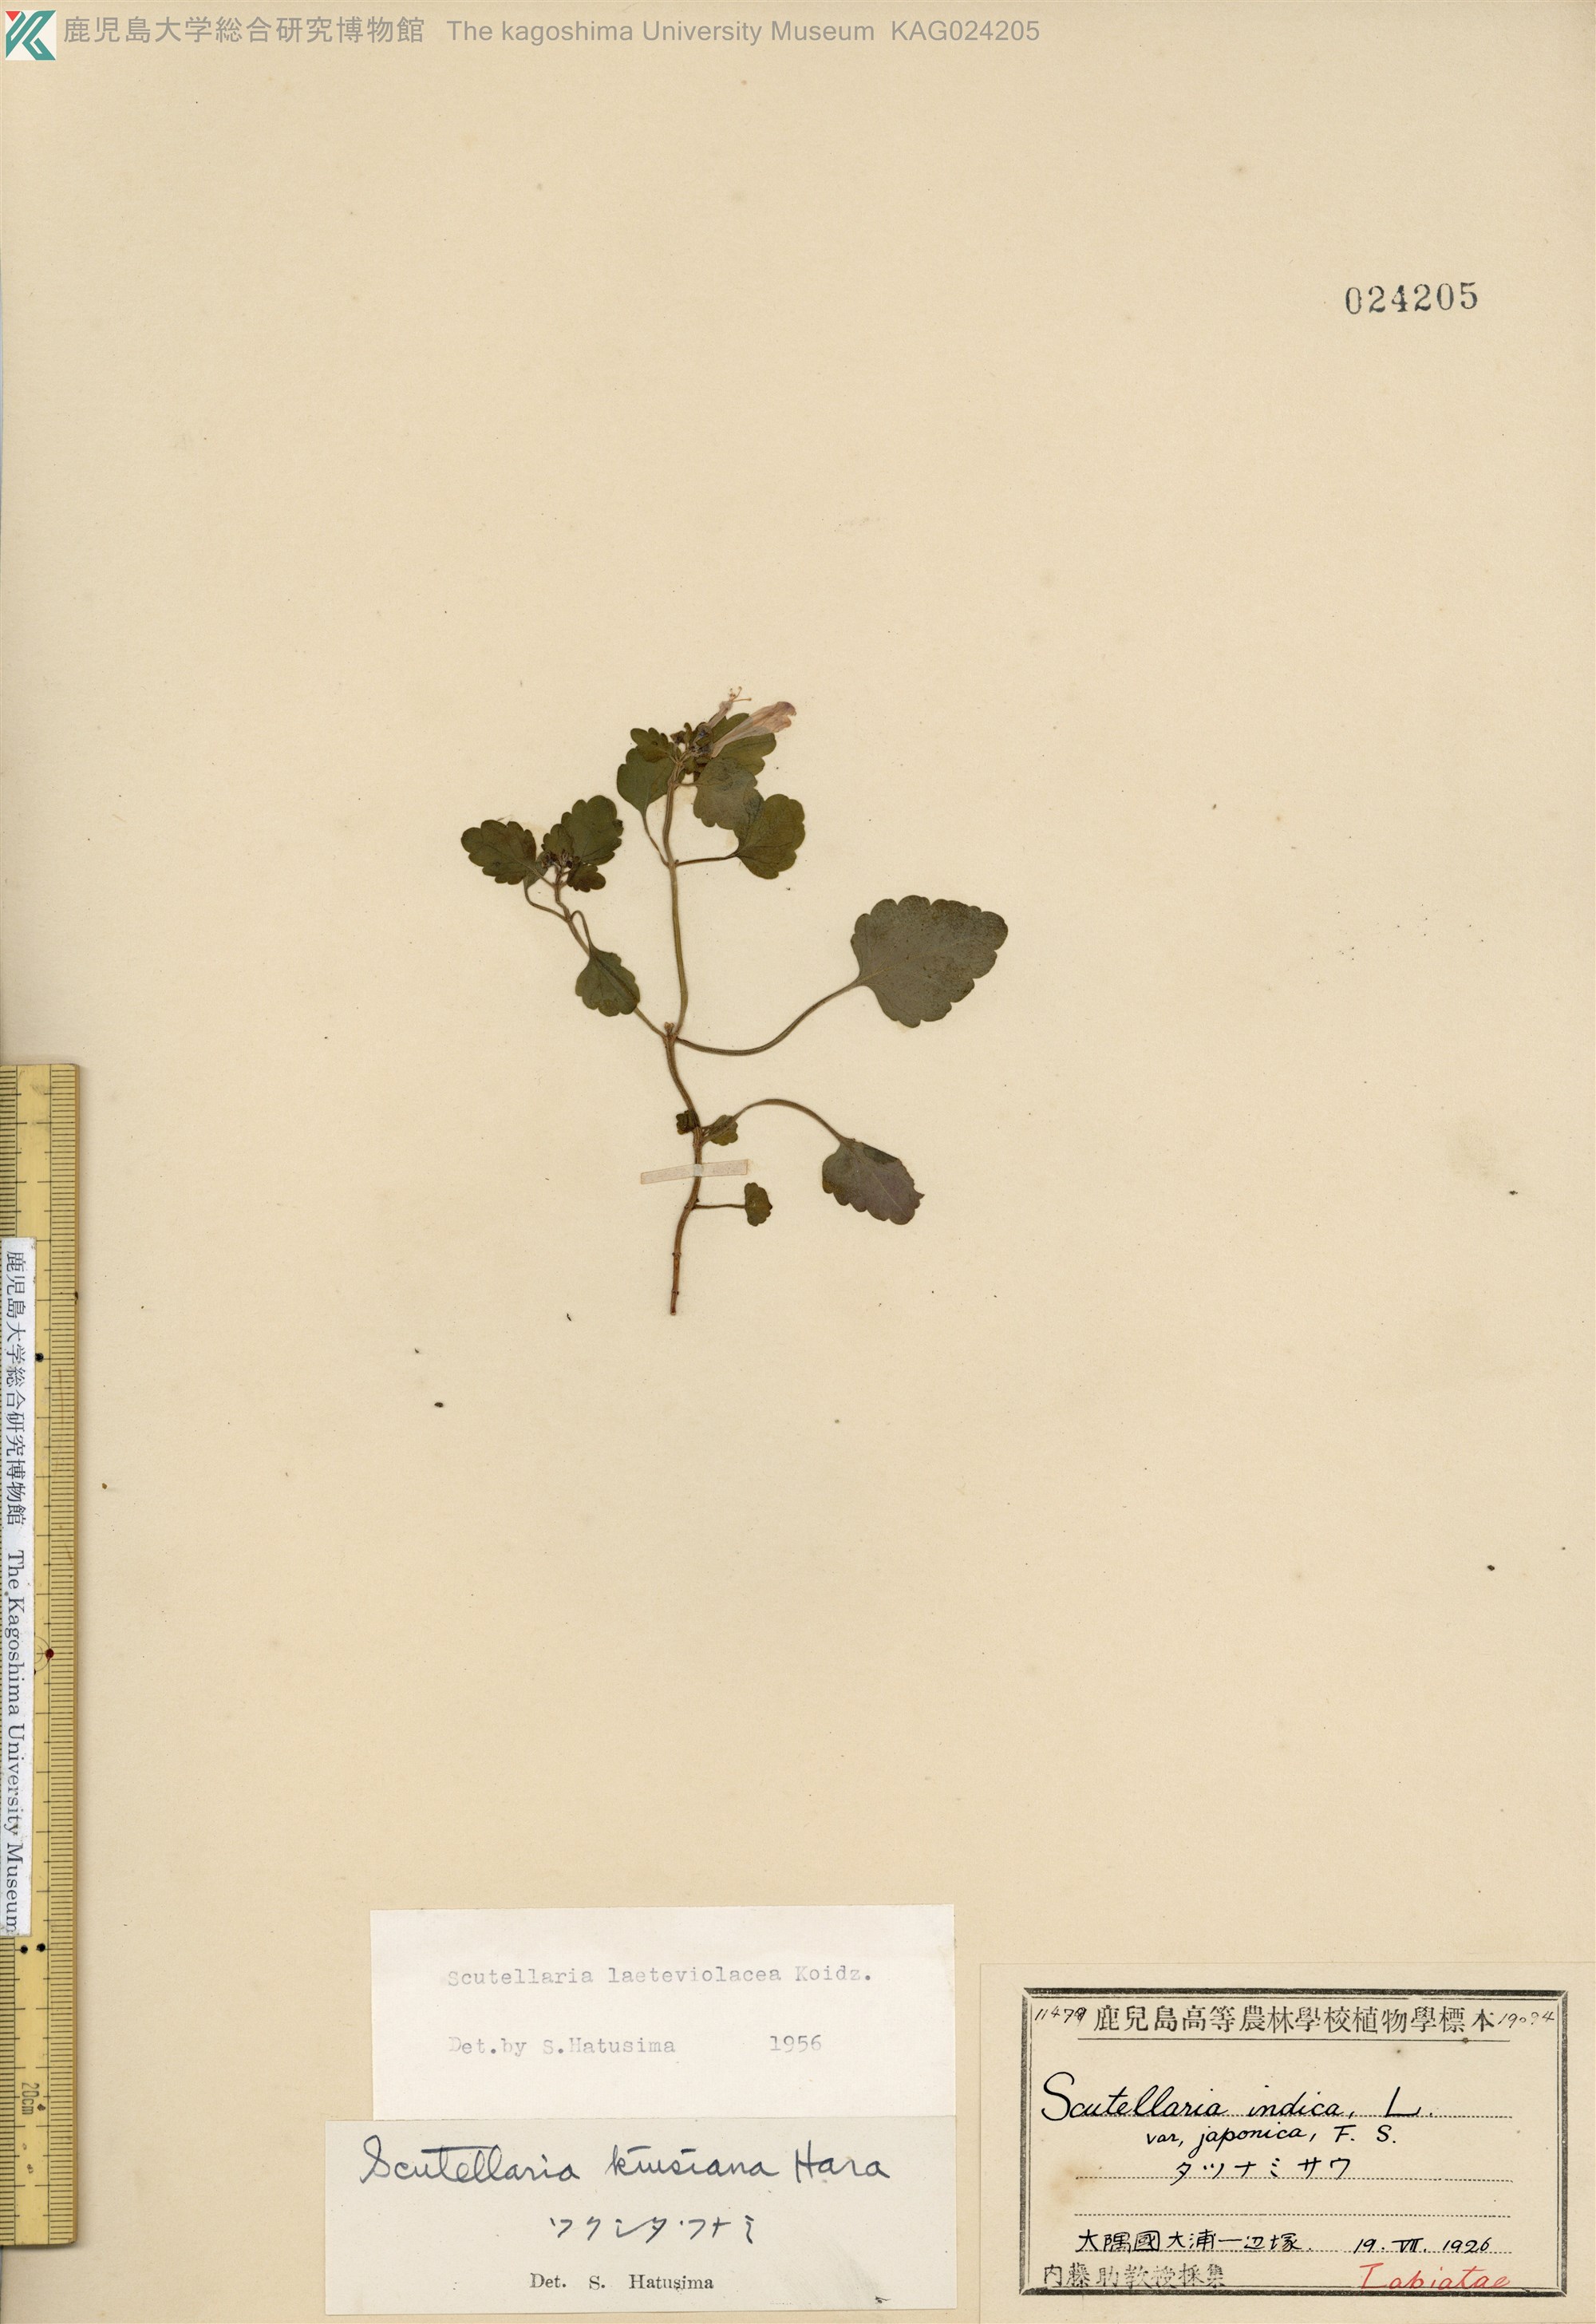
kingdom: Plantae
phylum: Tracheophyta
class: Magnoliopsida
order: Lamiales
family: Lamiaceae
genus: Scutellaria
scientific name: Scutellaria laeteviolacea
